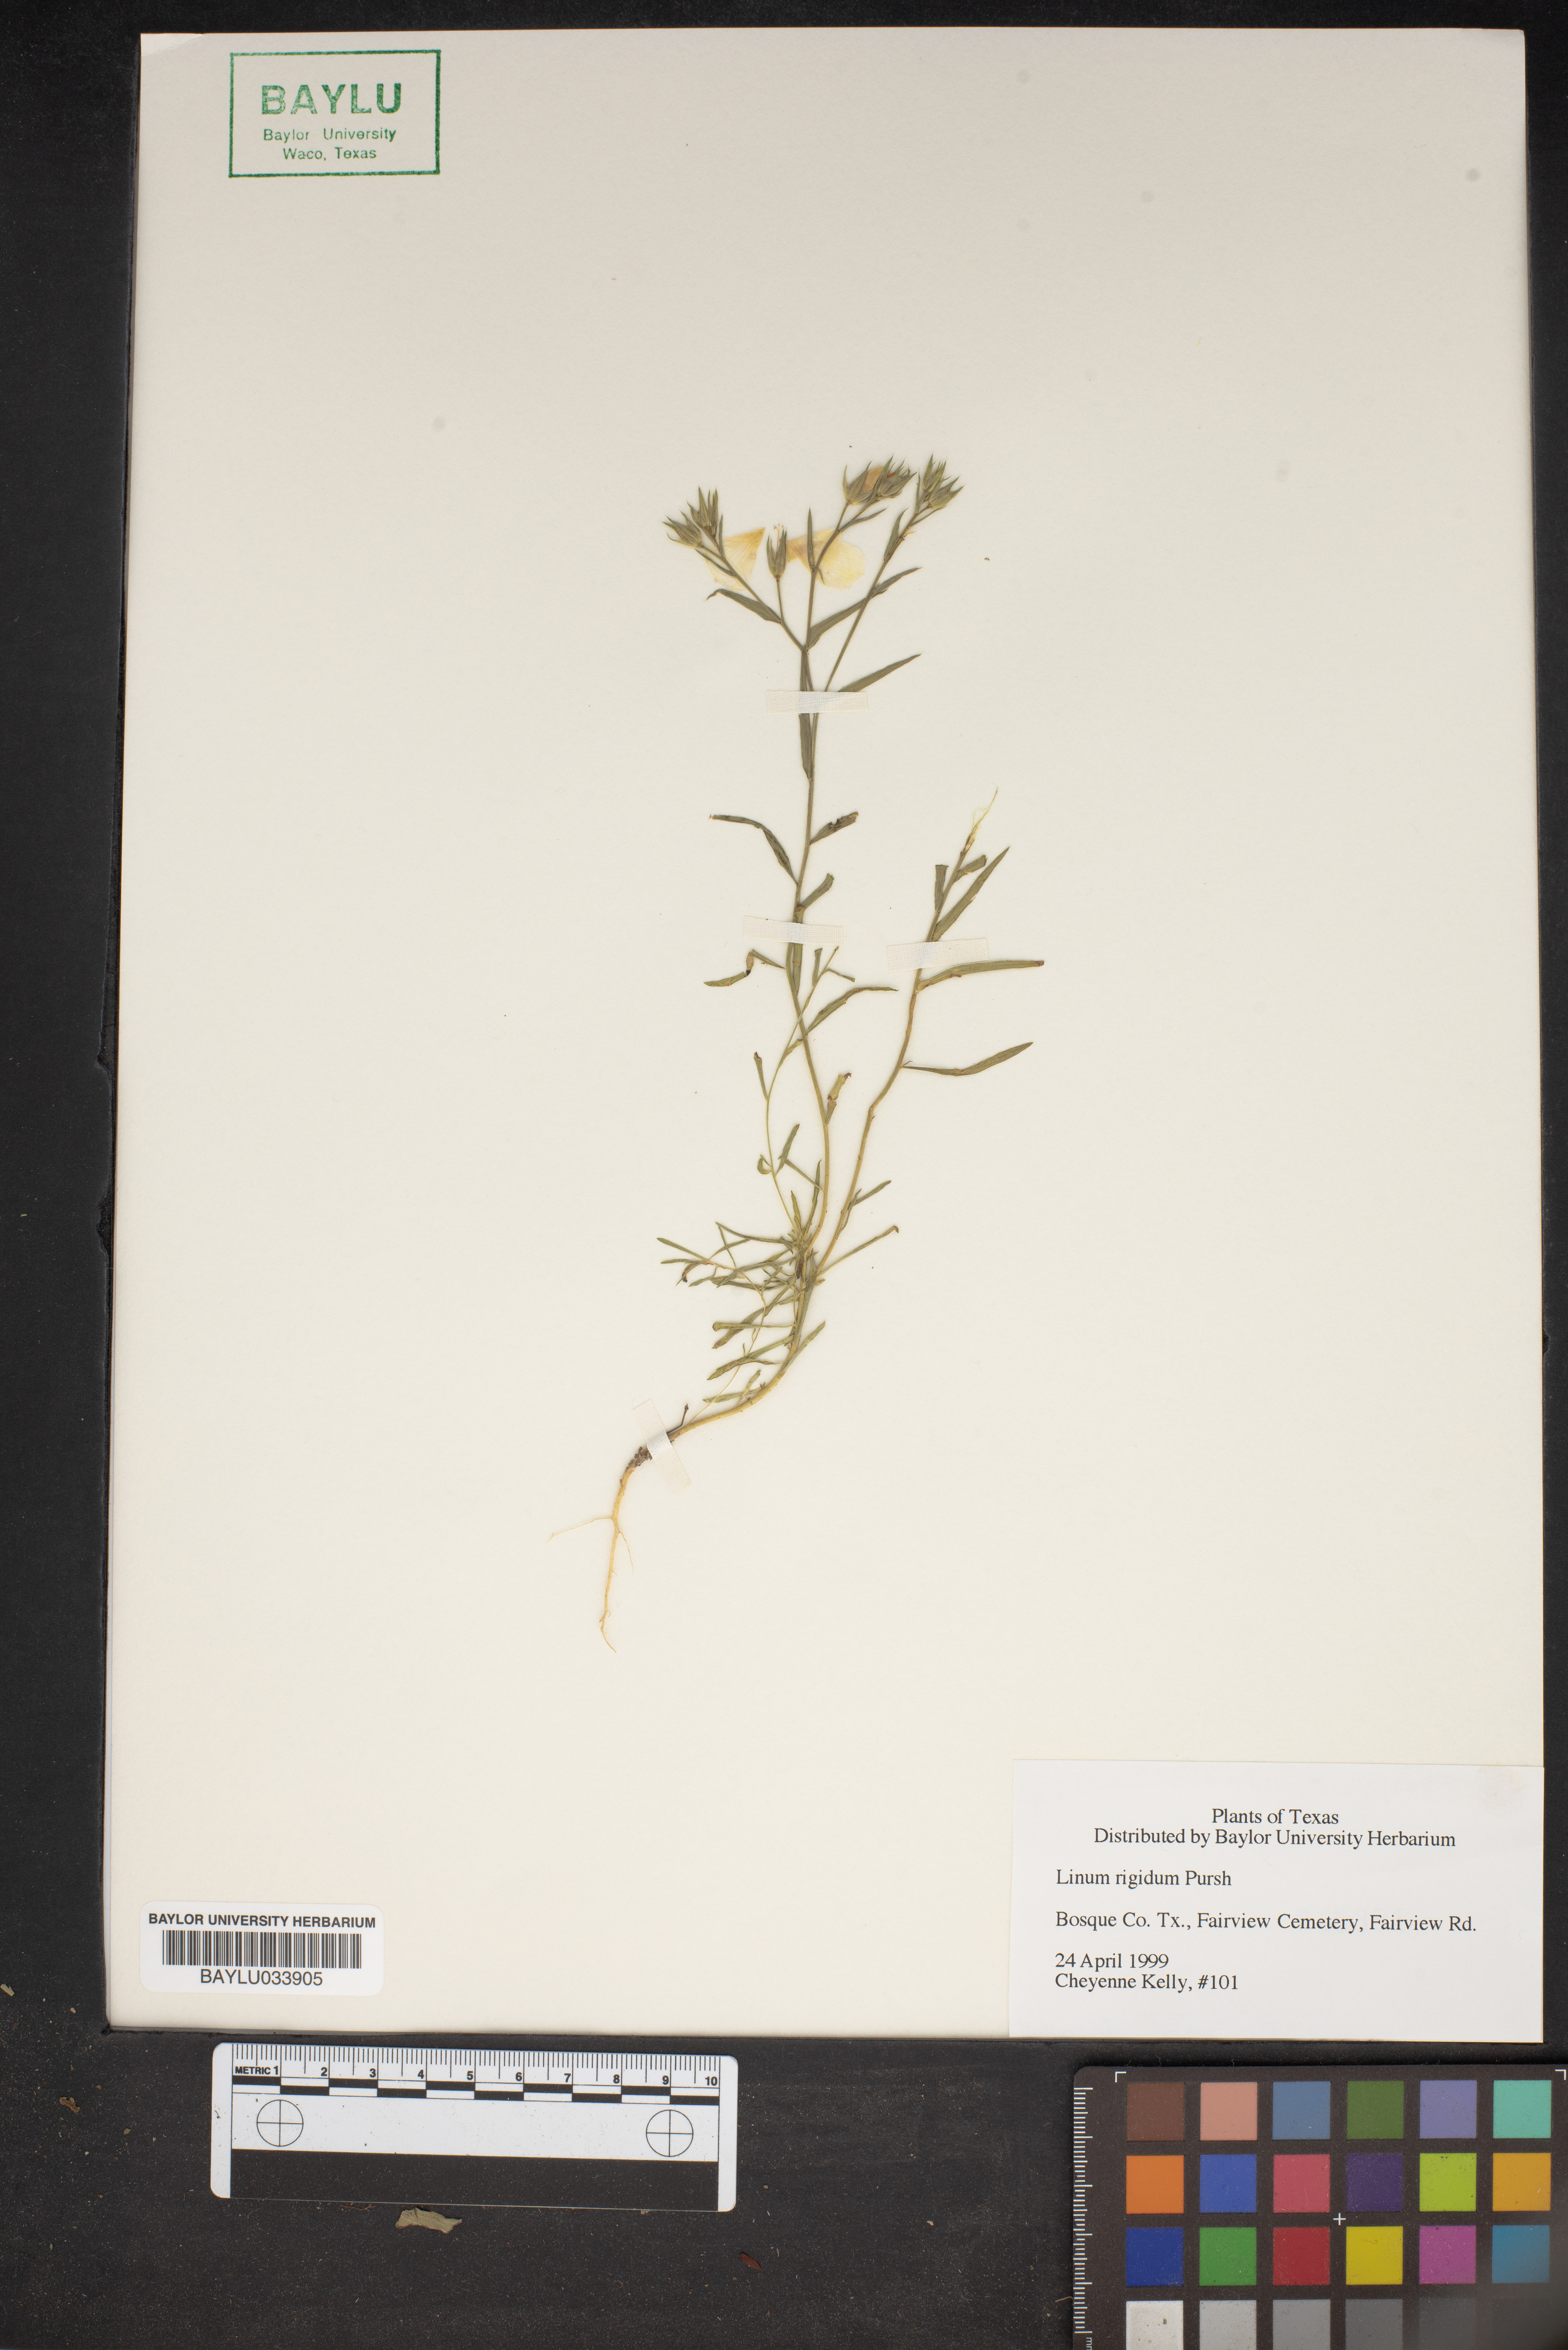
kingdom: Plantae
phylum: Tracheophyta
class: Magnoliopsida
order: Malpighiales
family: Linaceae
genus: Linum
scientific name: Linum rigidum
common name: Stiff-stem flax
